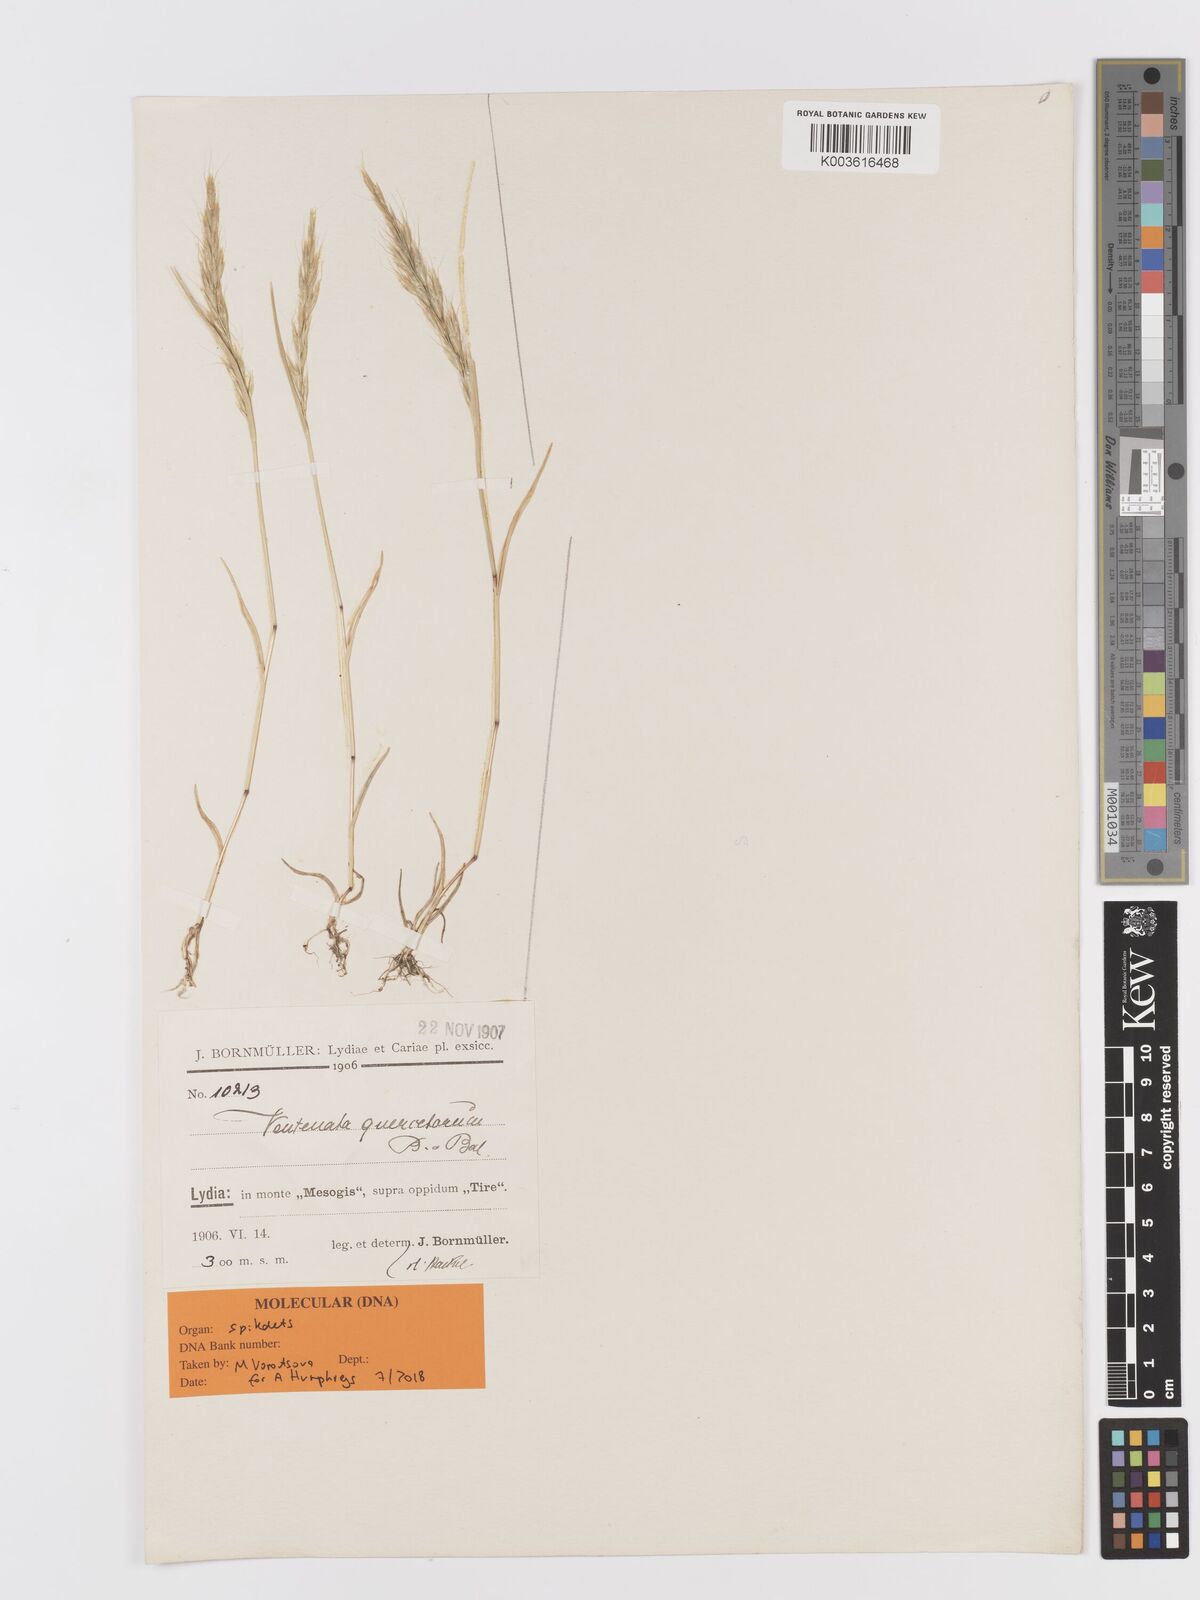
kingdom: Plantae
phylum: Tracheophyta
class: Liliopsida
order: Poales
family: Poaceae
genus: Ventenata
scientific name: Ventenata quercetorum
